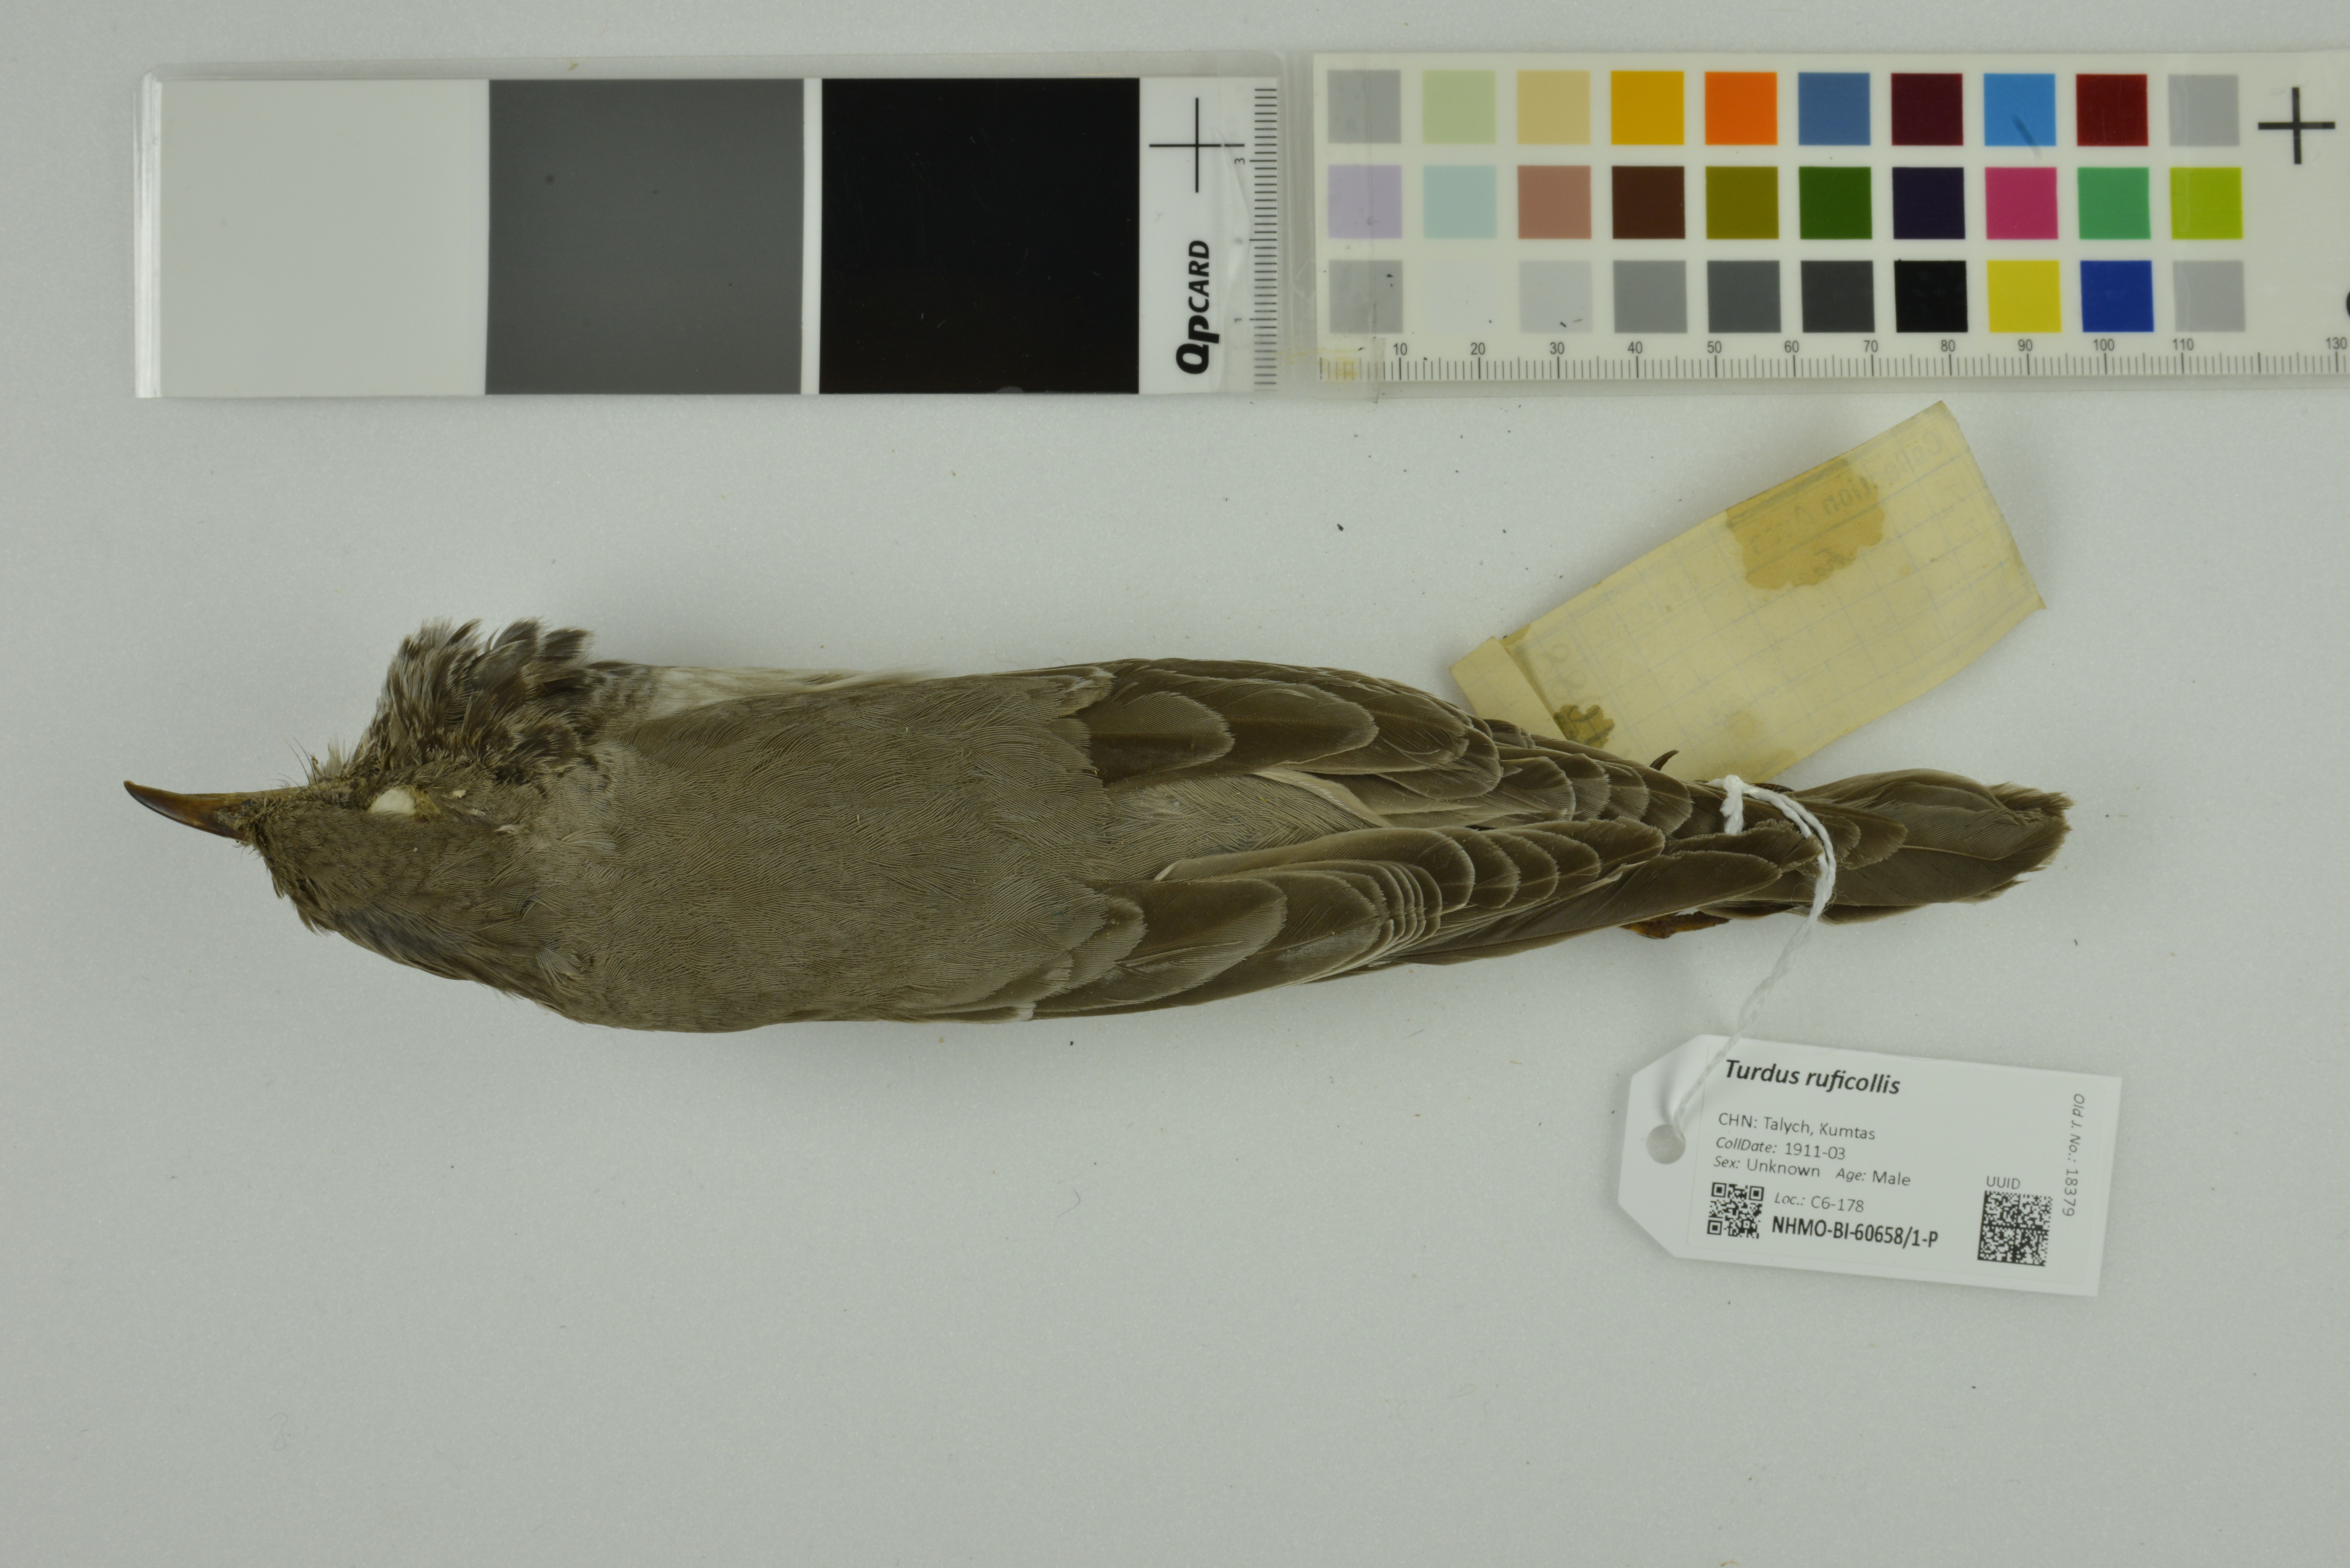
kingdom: Animalia
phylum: Chordata
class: Aves
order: Passeriformes
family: Turdidae
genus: Turdus
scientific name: Turdus ruficollis
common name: Red-throated thrush
